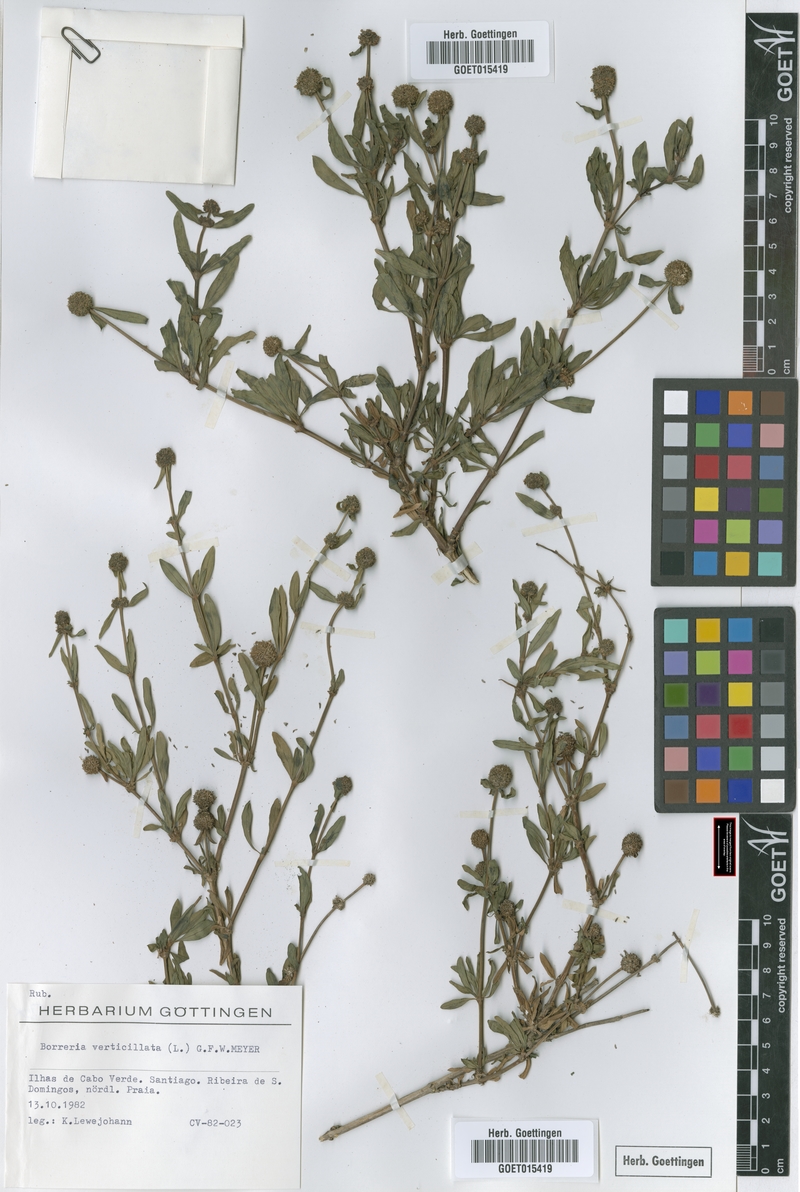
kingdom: Plantae
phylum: Tracheophyta
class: Magnoliopsida
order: Gentianales
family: Rubiaceae
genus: Spermacoce
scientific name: Spermacoce verticillata
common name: Shrubby false buttonweed
